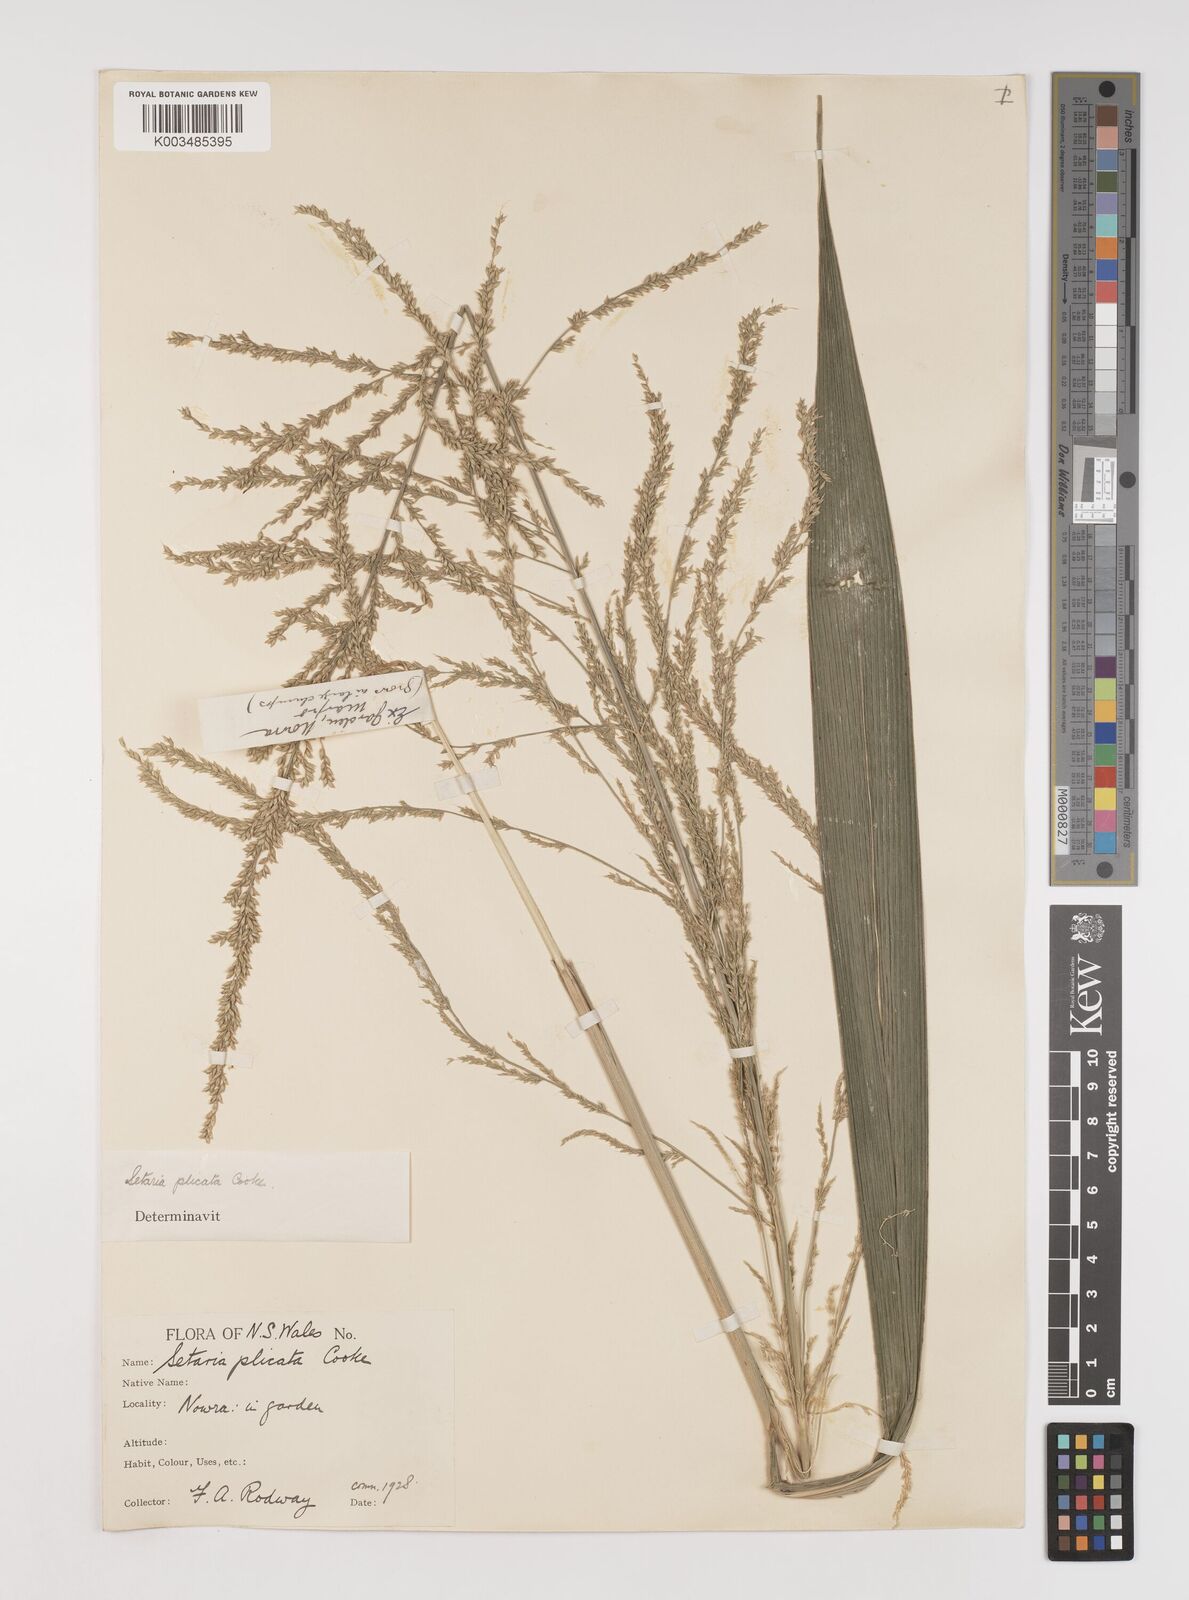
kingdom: Plantae
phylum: Tracheophyta
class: Liliopsida
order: Poales
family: Poaceae
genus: Setaria
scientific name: Setaria palmifolia
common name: Broadleaved bristlegrass
